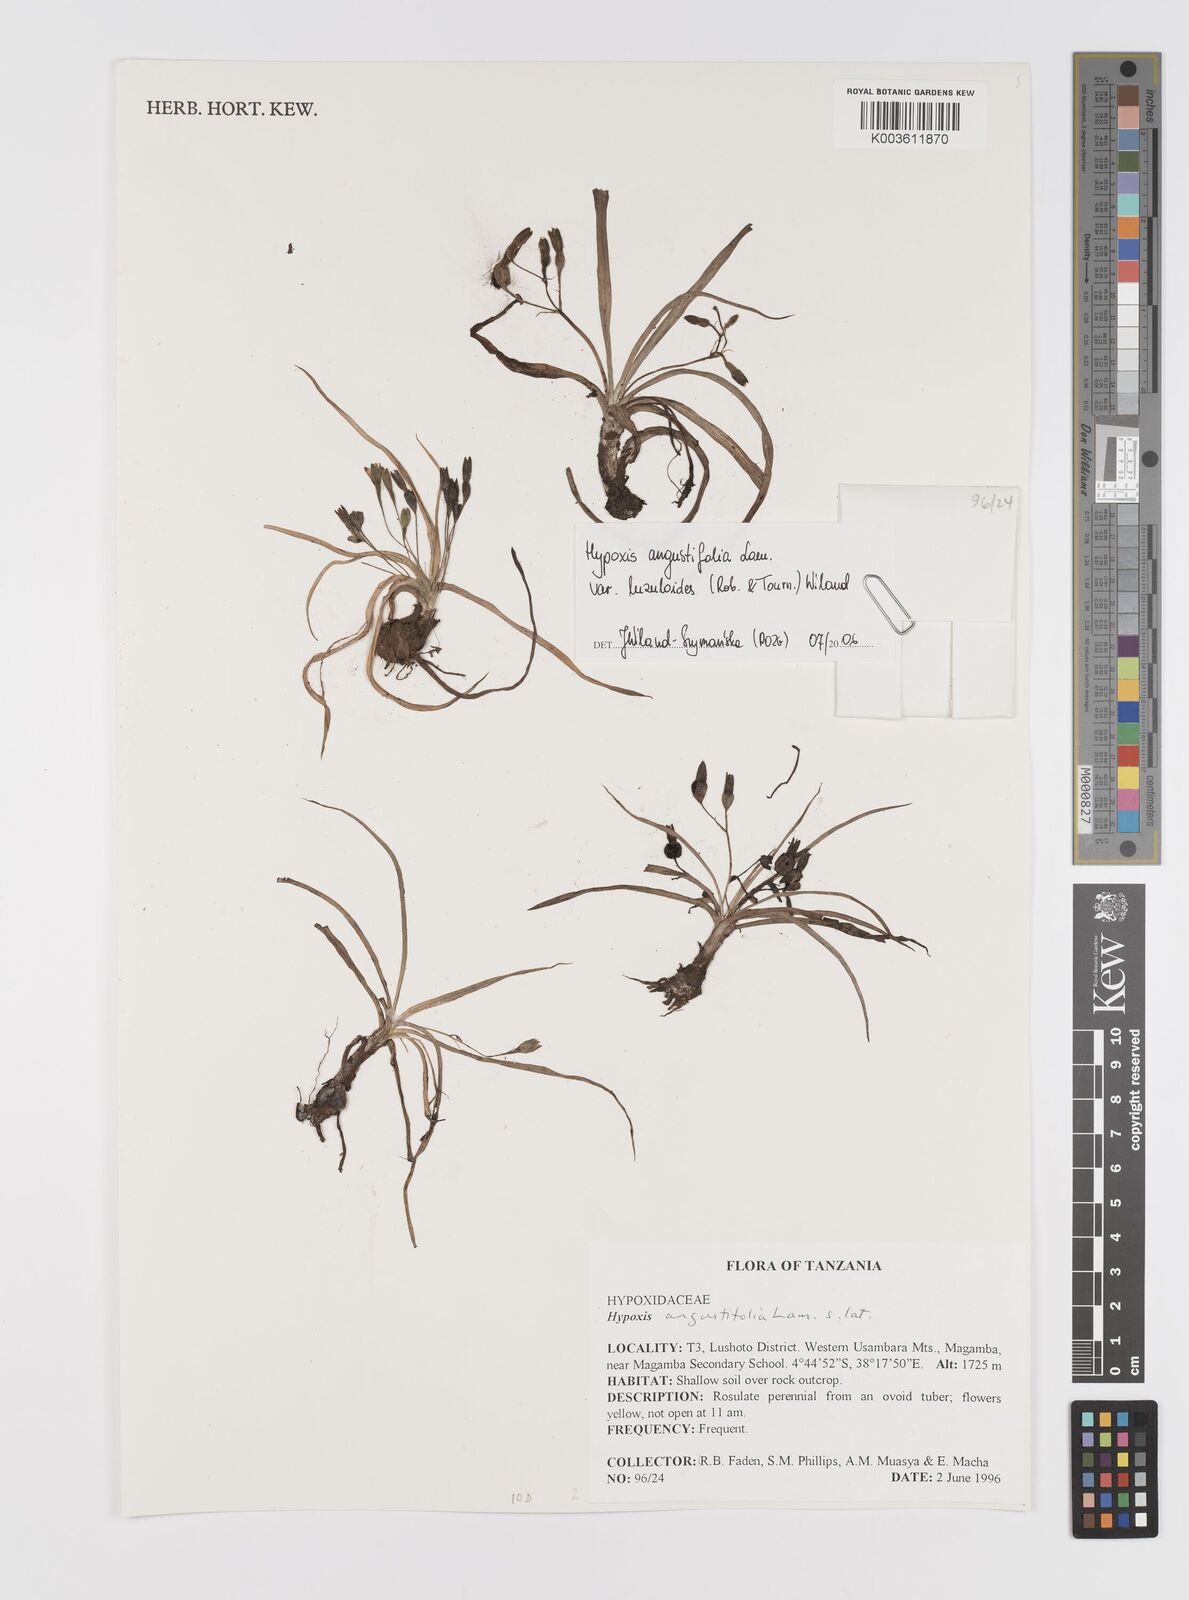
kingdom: Plantae
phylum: Tracheophyta
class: Liliopsida
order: Asparagales
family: Hypoxidaceae
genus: Hypoxis
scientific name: Hypoxis angustifolia
